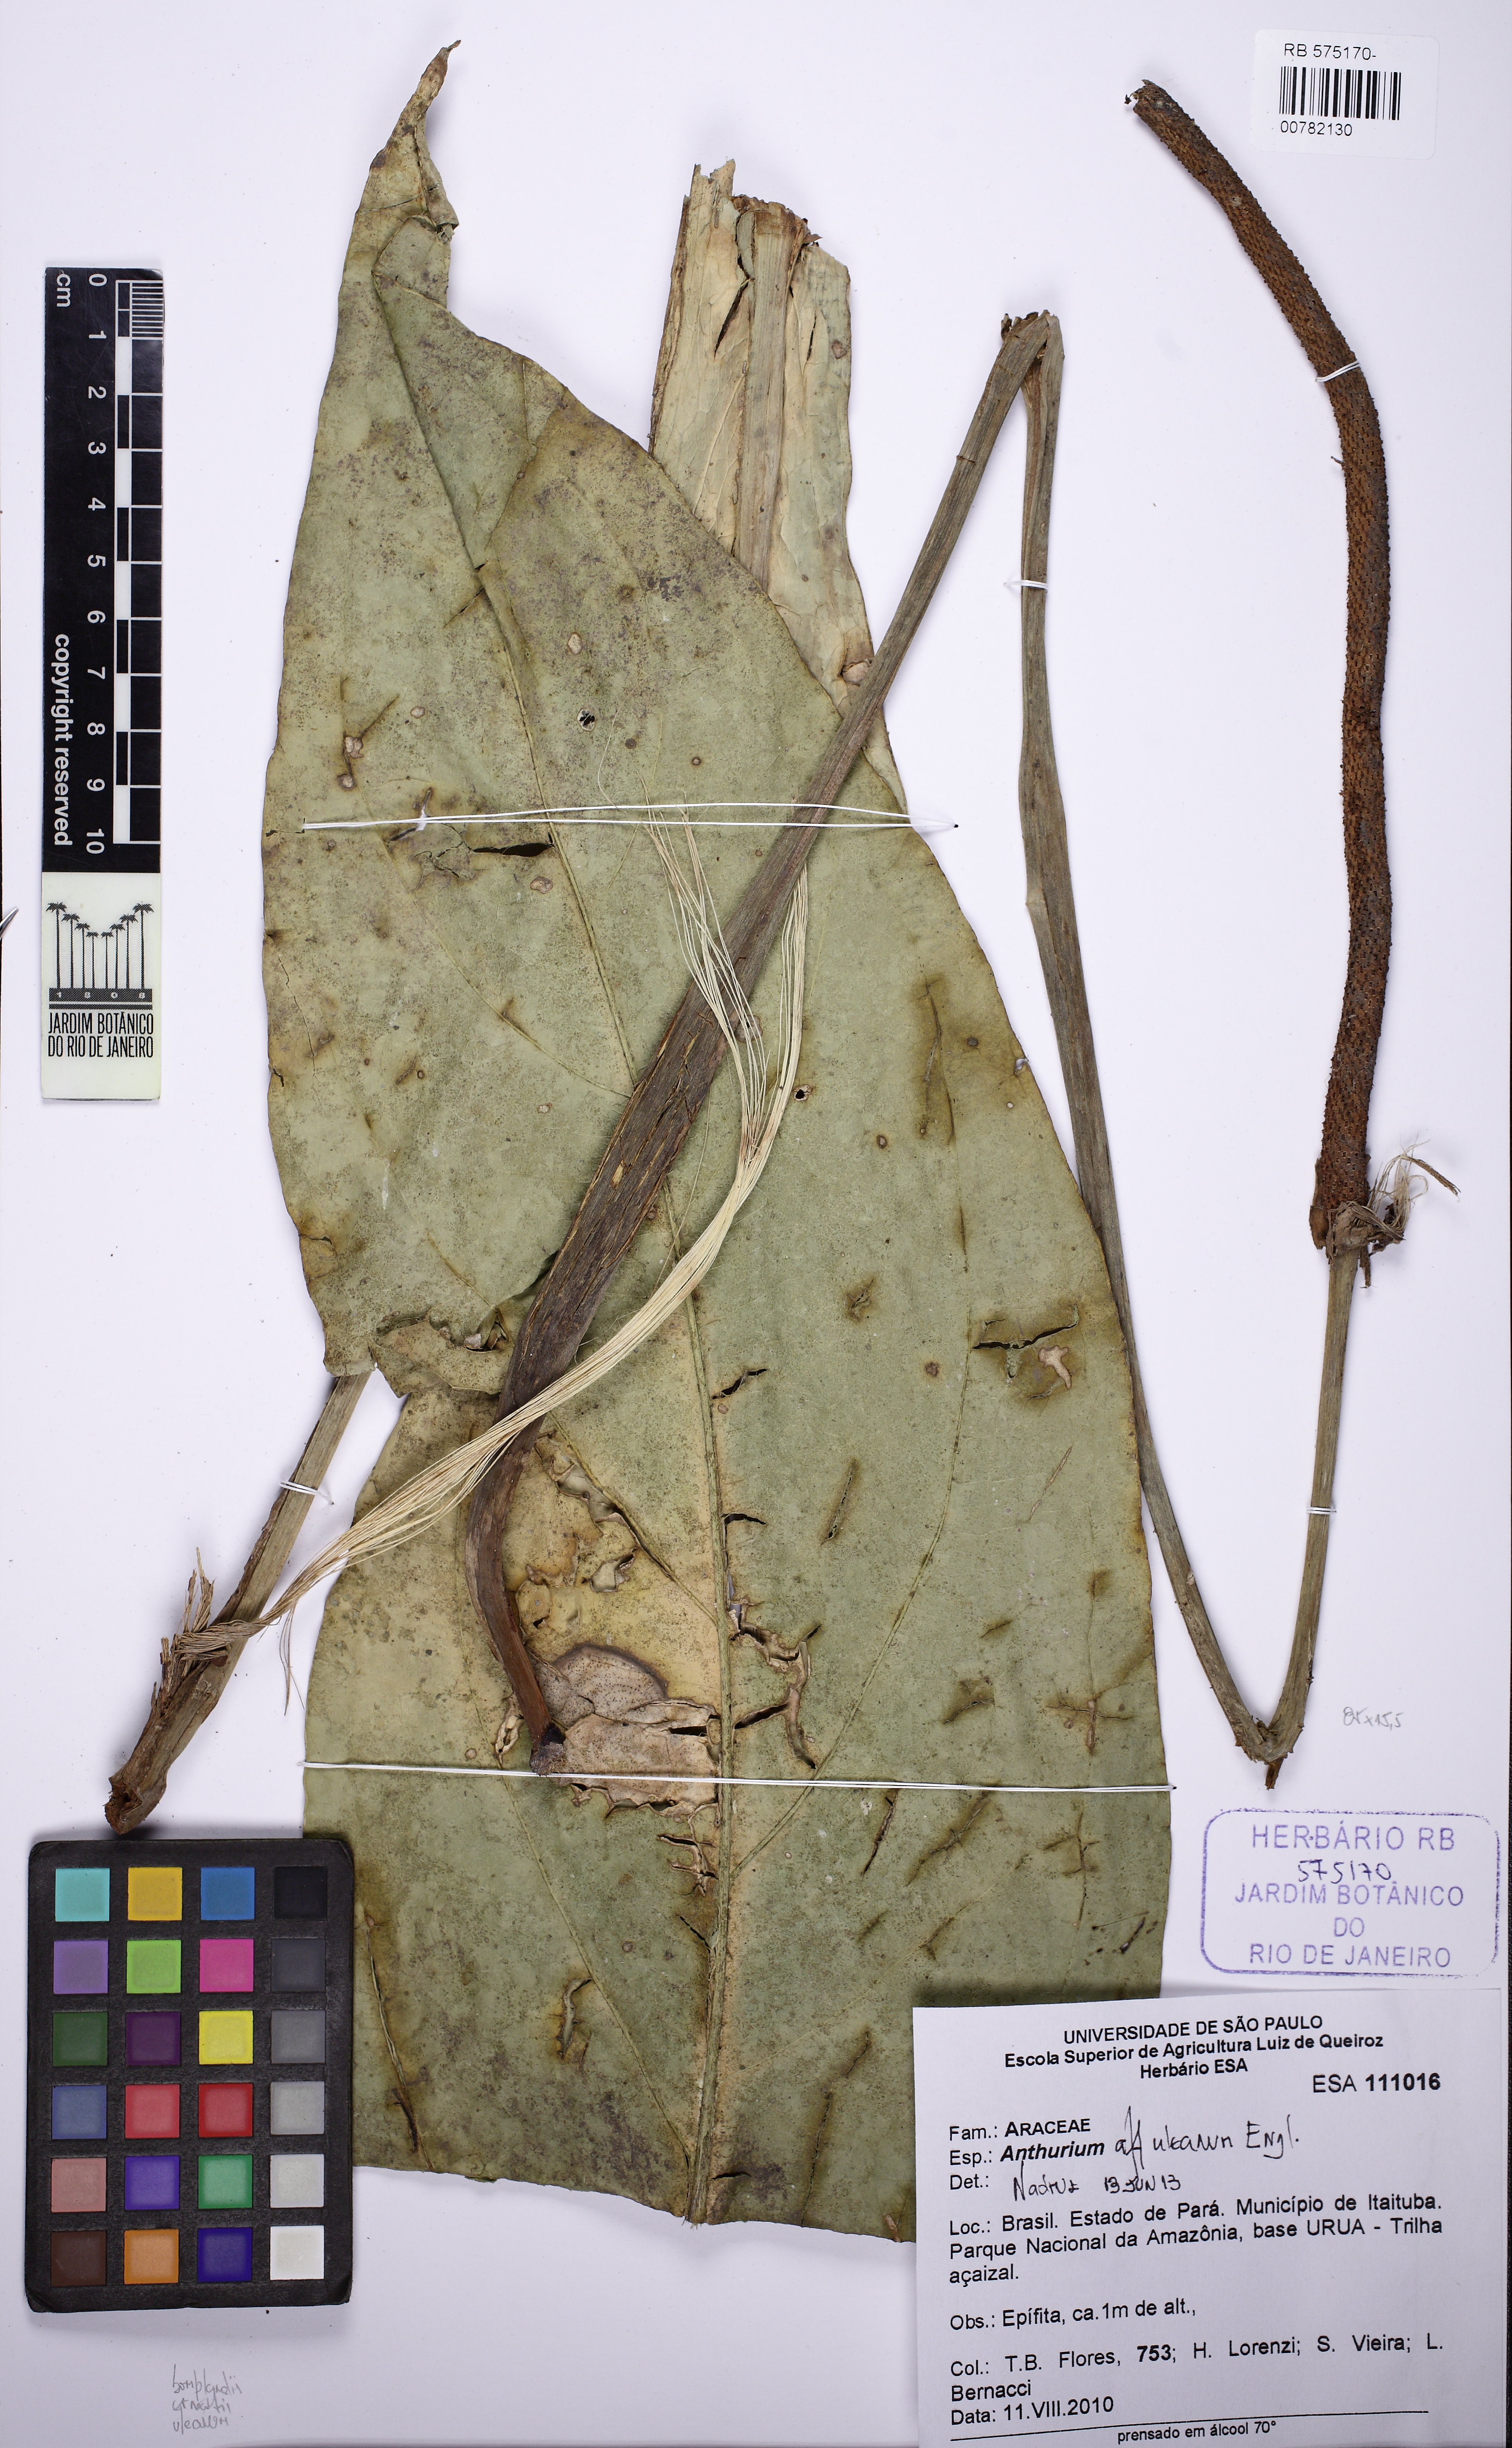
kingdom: Plantae
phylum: Tracheophyta
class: Liliopsida
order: Alismatales
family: Araceae
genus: Anthurium
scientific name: Anthurium uleanum
